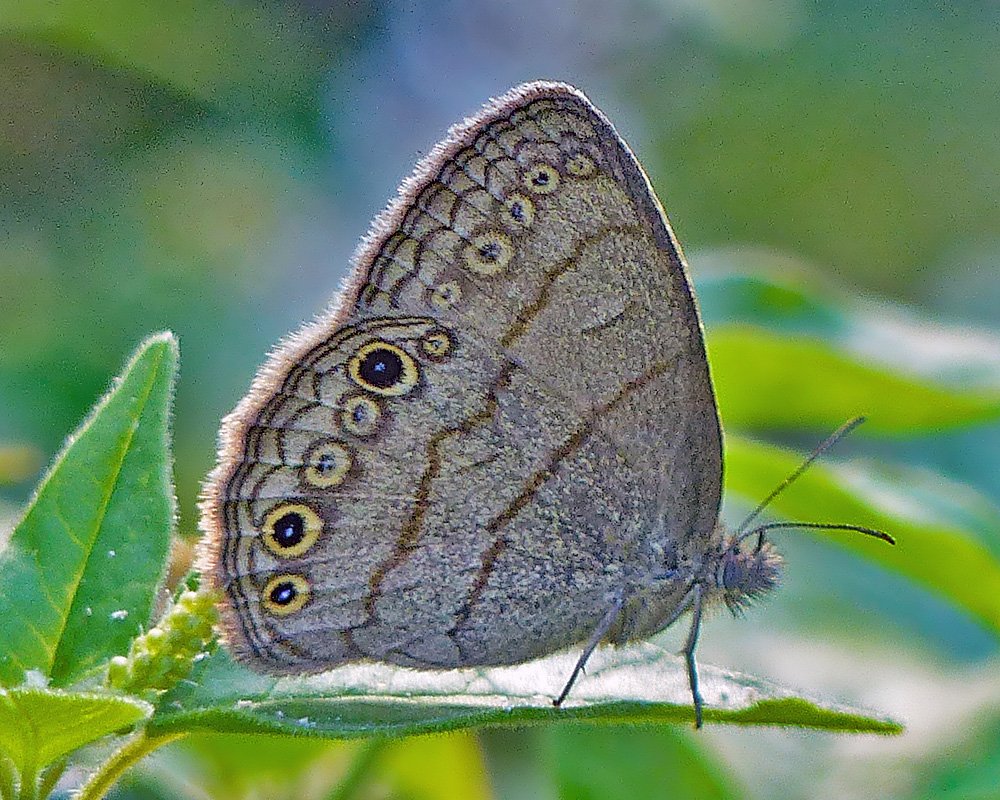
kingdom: Animalia
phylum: Arthropoda
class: Insecta
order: Lepidoptera
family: Nymphalidae
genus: Hermeuptychia
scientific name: Hermeuptychia hermes
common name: Hermes Satyr
